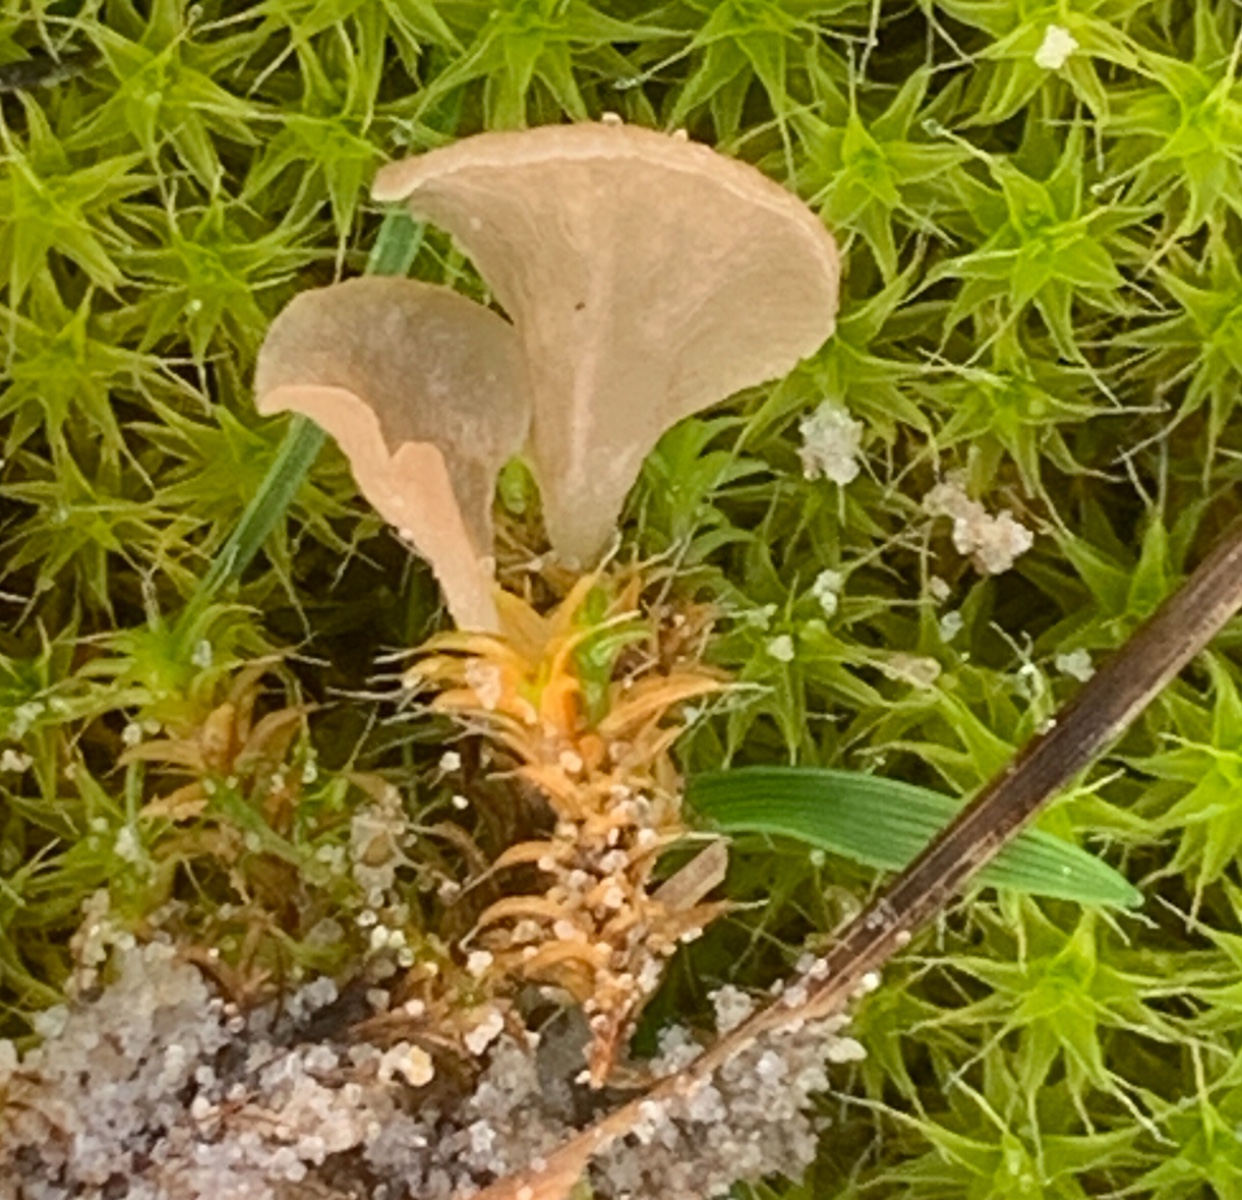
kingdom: Fungi
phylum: Basidiomycota
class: Agaricomycetes
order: Agaricales
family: Hygrophoraceae
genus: Arrhenia
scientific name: Arrhenia spathulata
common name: skæv fontænehat
